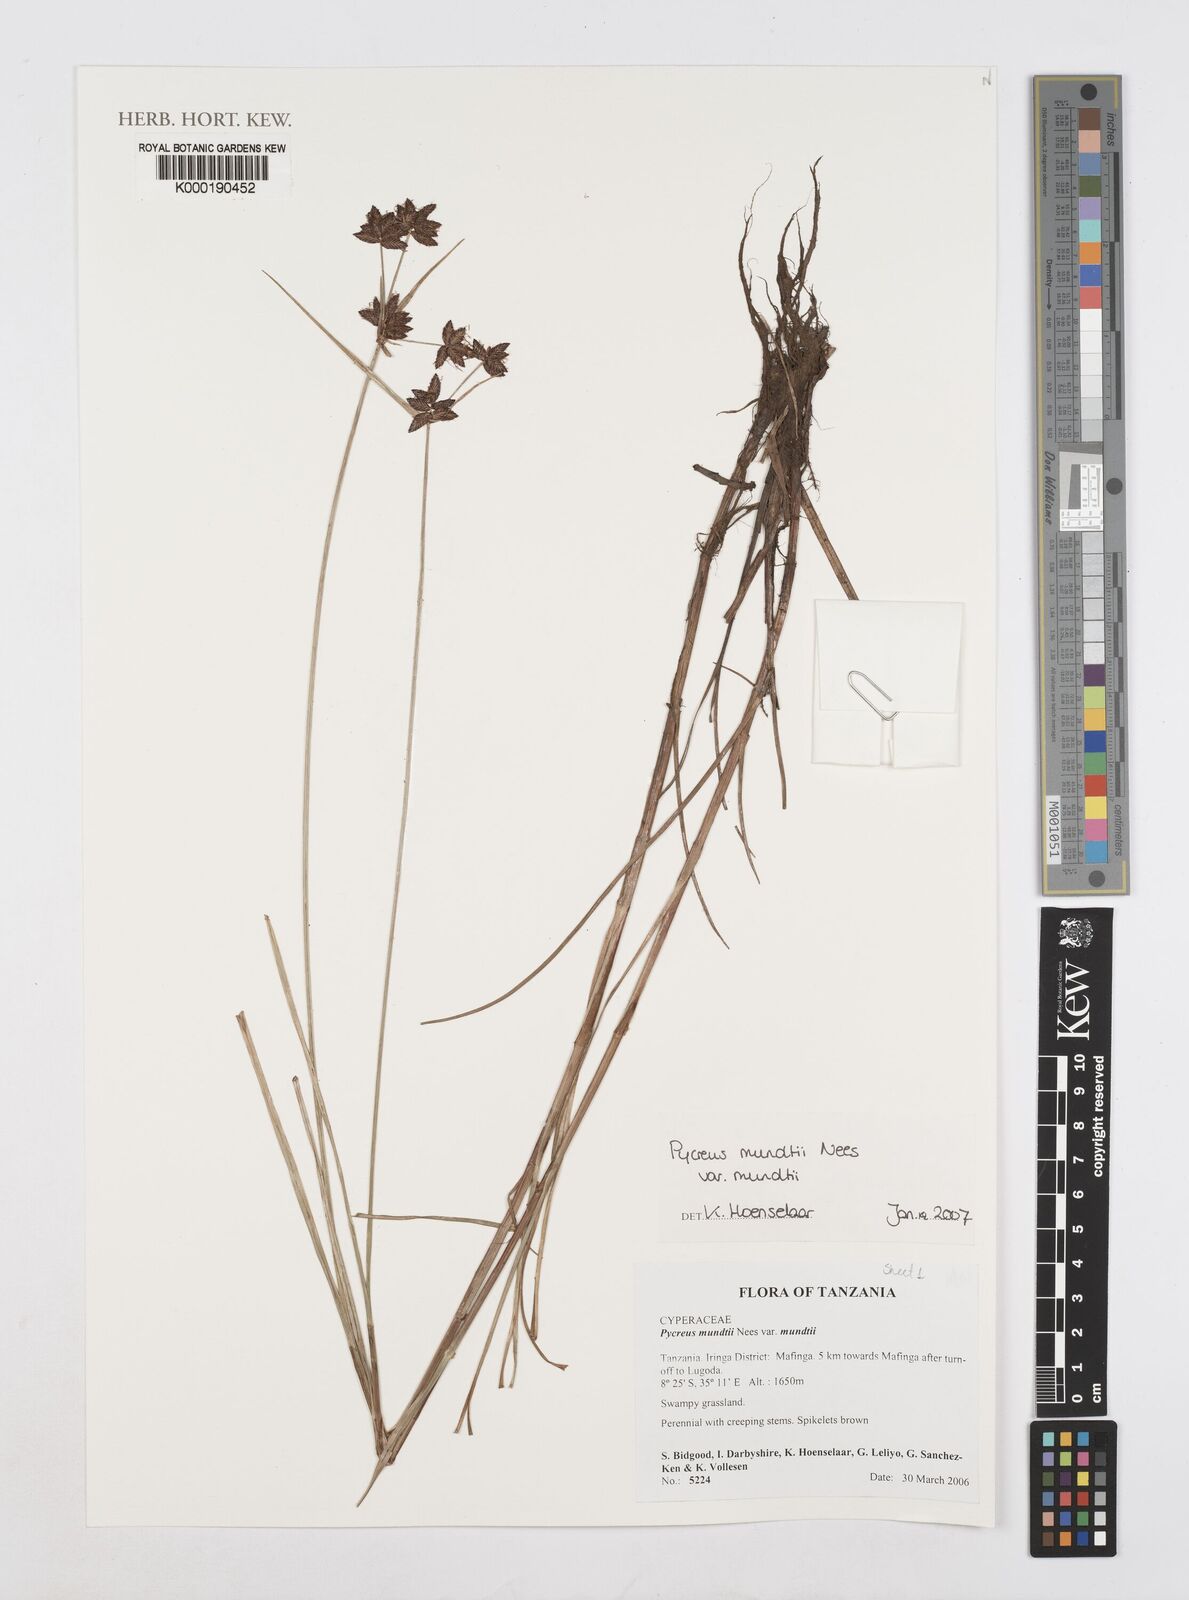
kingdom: Plantae
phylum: Tracheophyta
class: Liliopsida
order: Poales
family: Cyperaceae
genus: Cyperus
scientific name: Cyperus mundii
